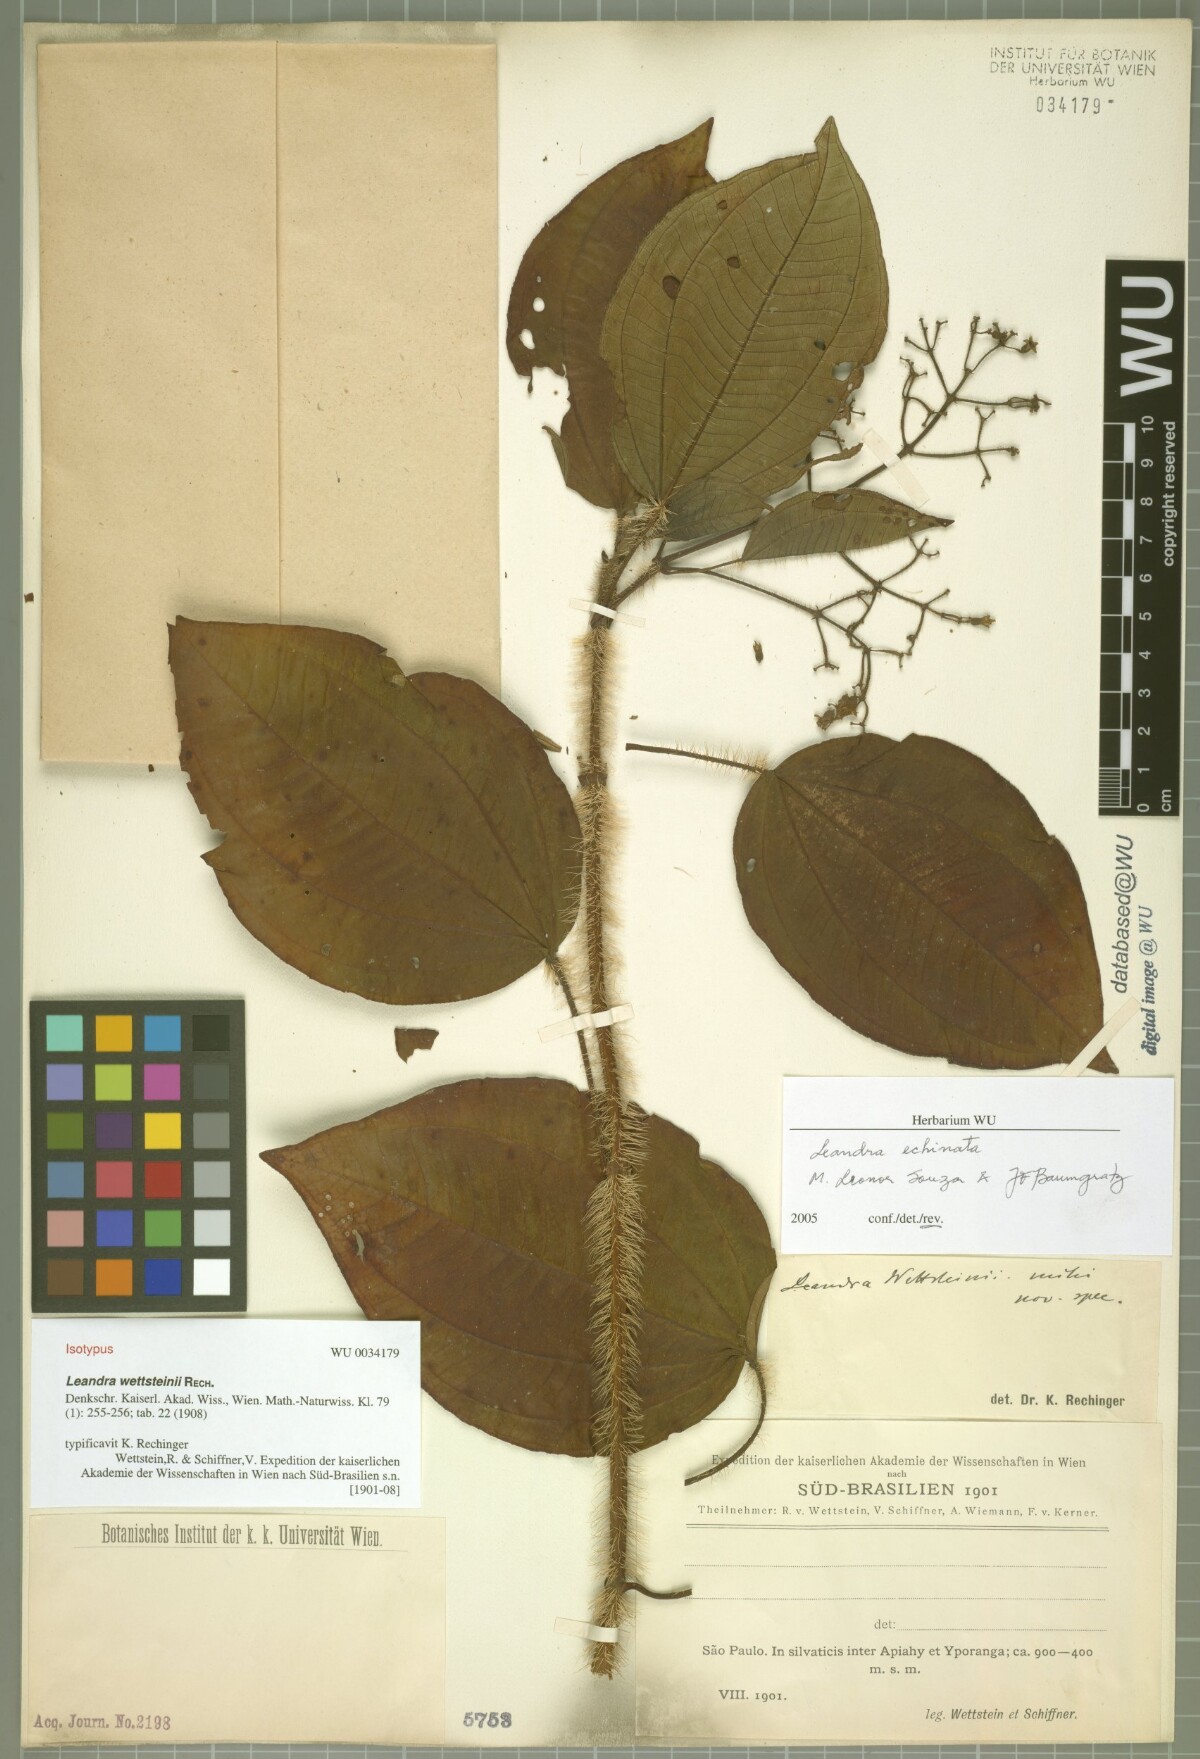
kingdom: Plantae
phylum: Tracheophyta
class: Magnoliopsida
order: Myrtales
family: Melastomataceae
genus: Miconia
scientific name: Miconia leaechinata
